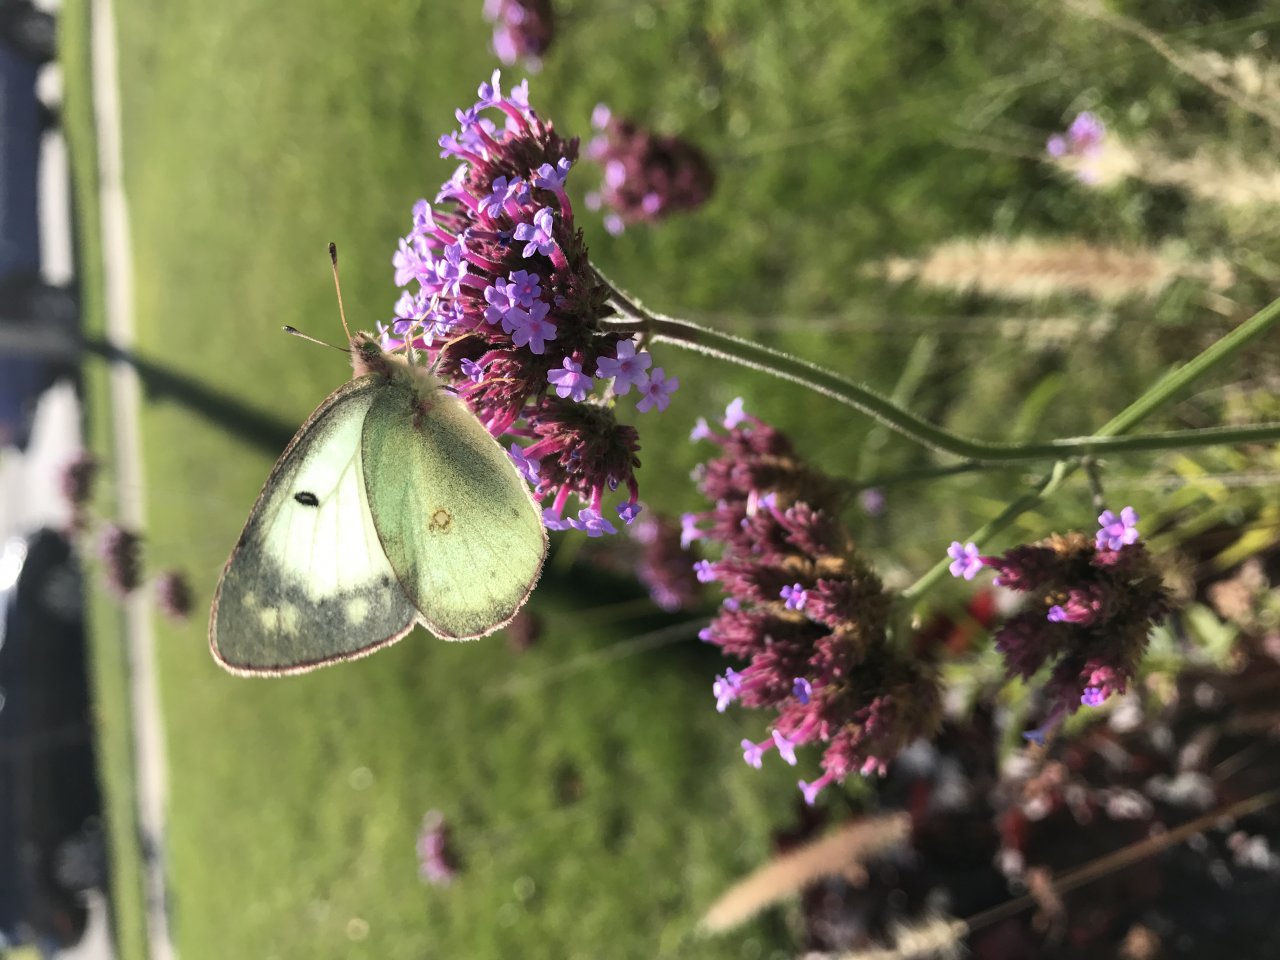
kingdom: Animalia
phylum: Arthropoda
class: Insecta
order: Lepidoptera
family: Pieridae
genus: Colias
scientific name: Colias philodice
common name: Clouded Sulphur
